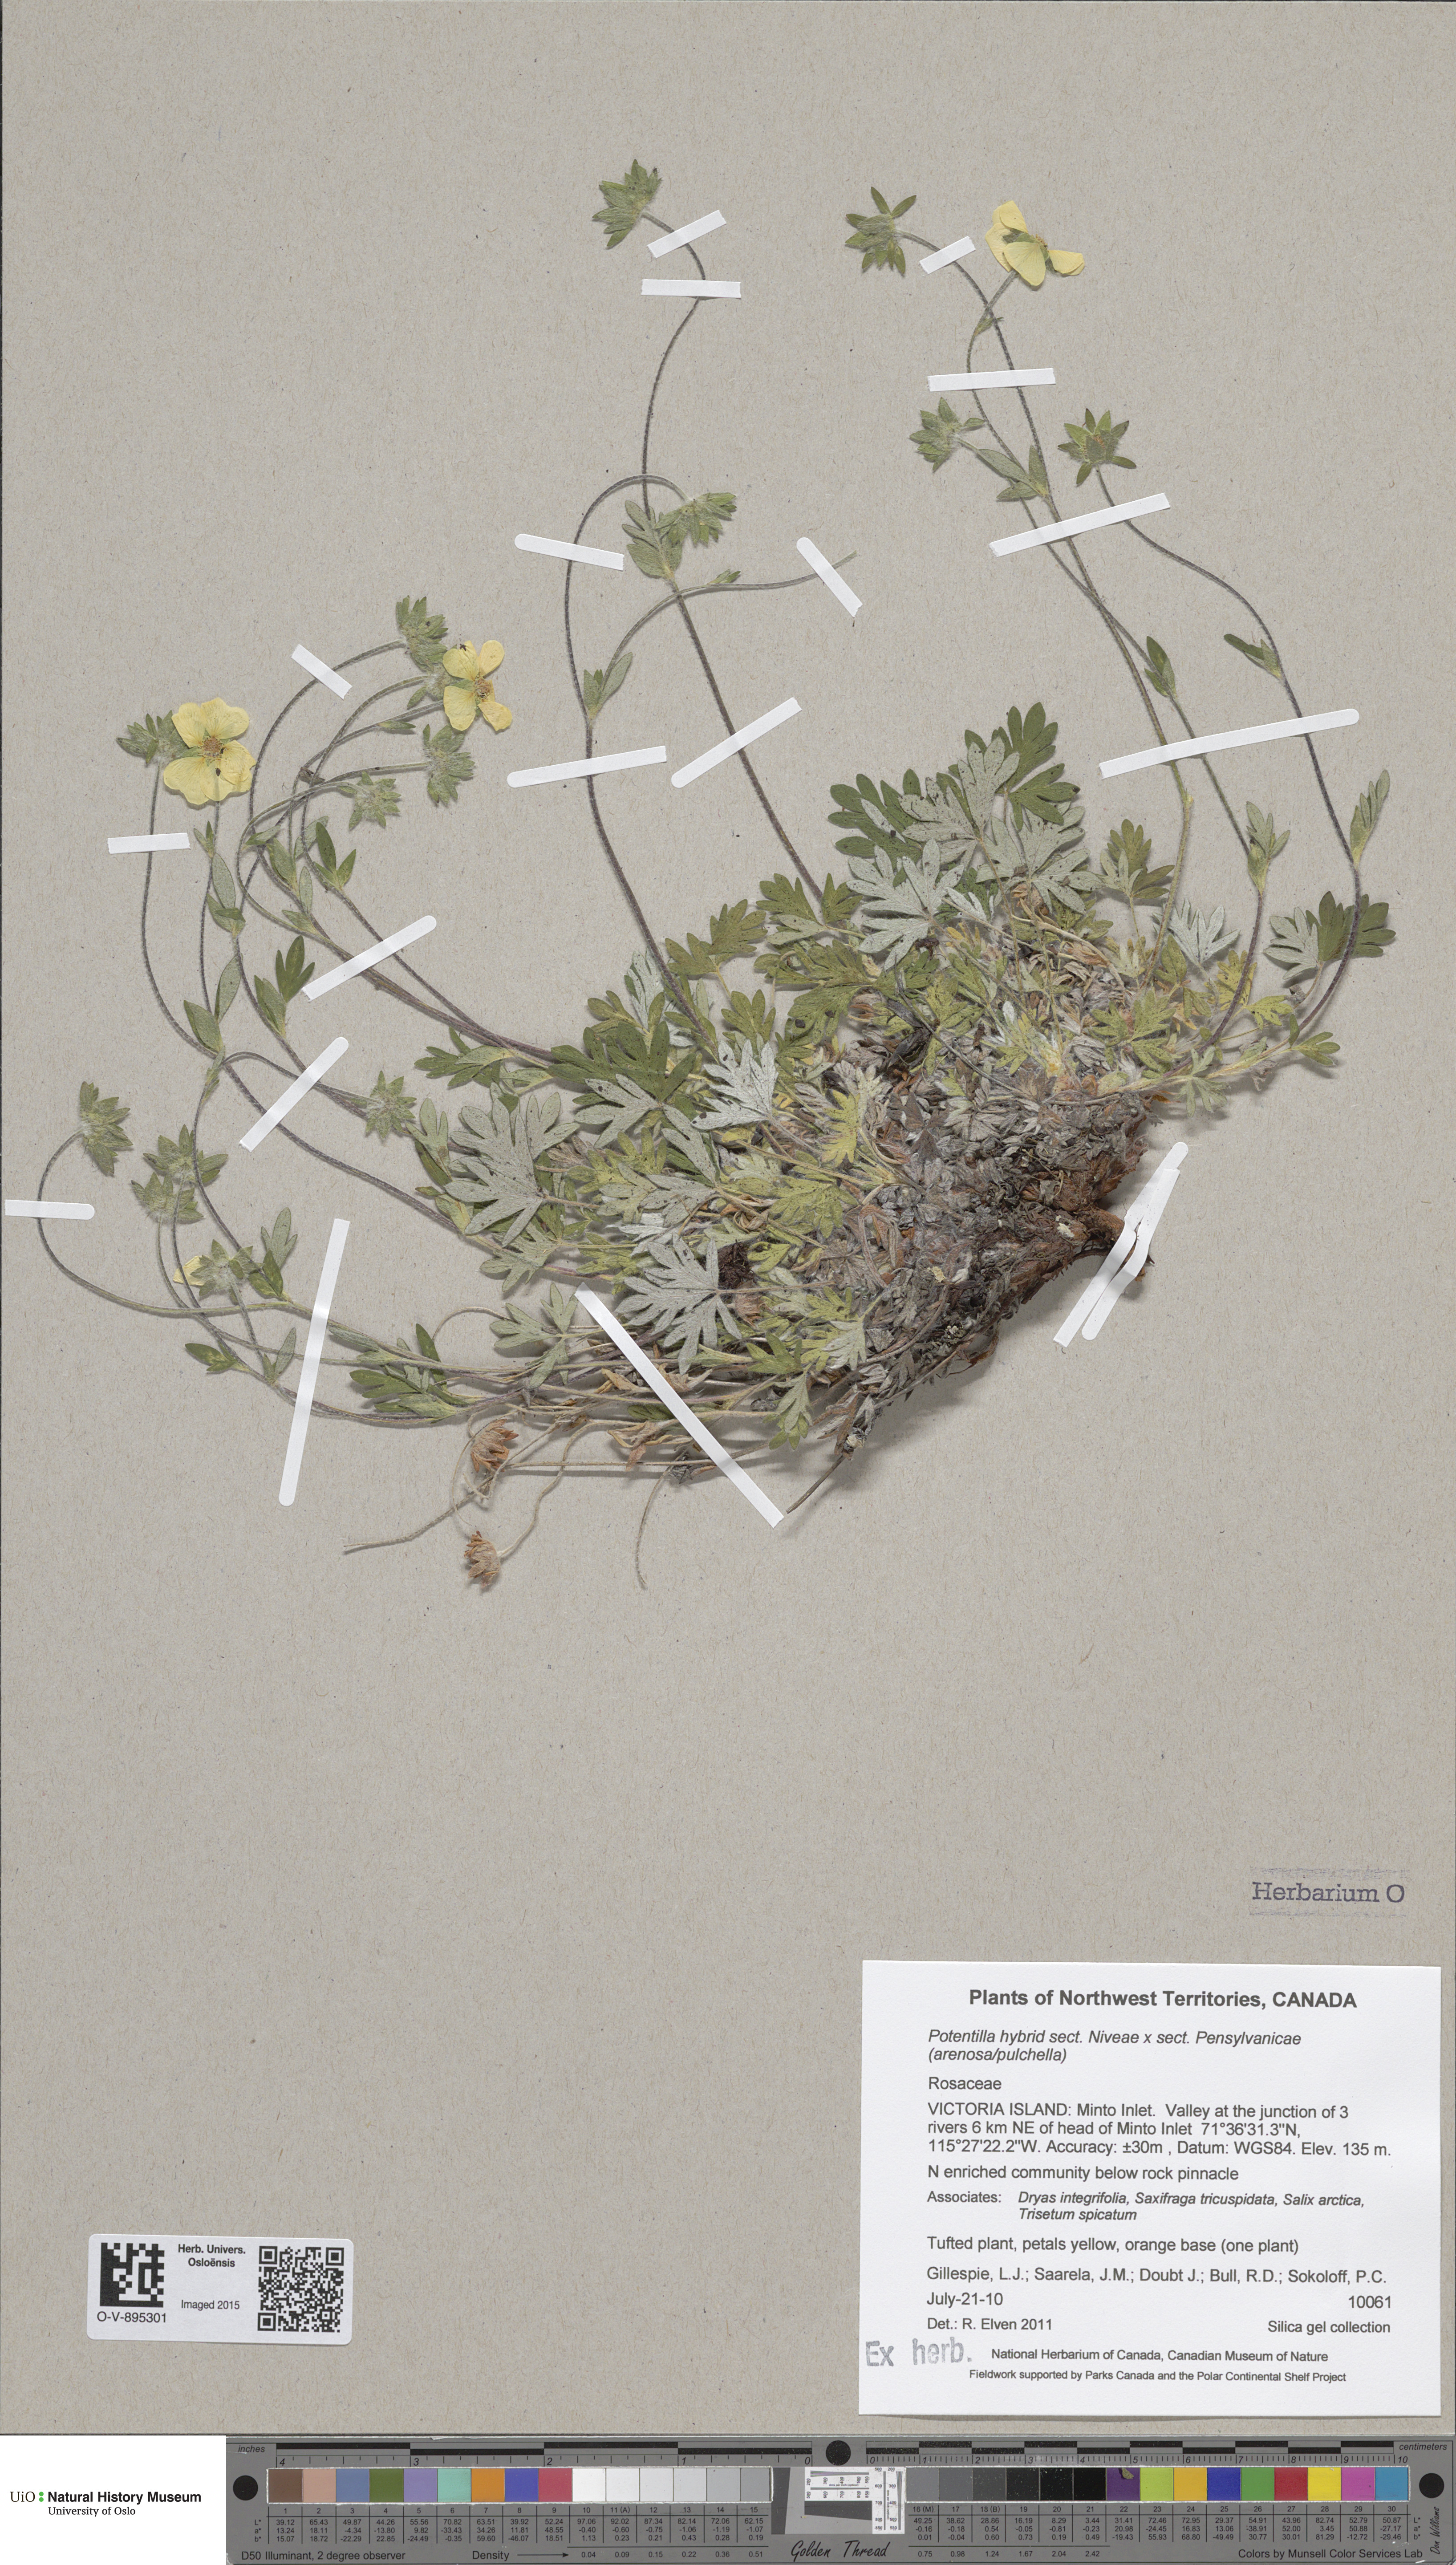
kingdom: Plantae
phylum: Tracheophyta
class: Magnoliopsida
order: Rosales
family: Rosaceae
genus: Potentilla
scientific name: Potentilla
